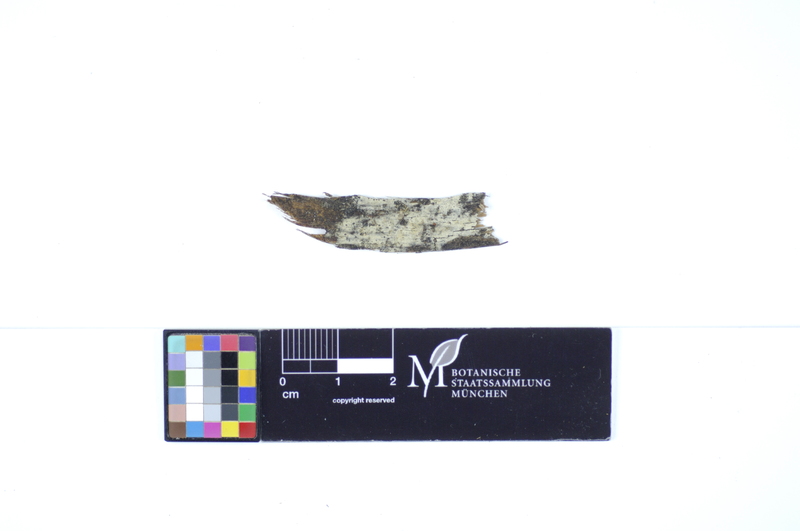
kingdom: Plantae
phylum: Tracheophyta
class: Pinopsida
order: Pinales
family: Pinaceae
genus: Pinus
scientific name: Pinus
